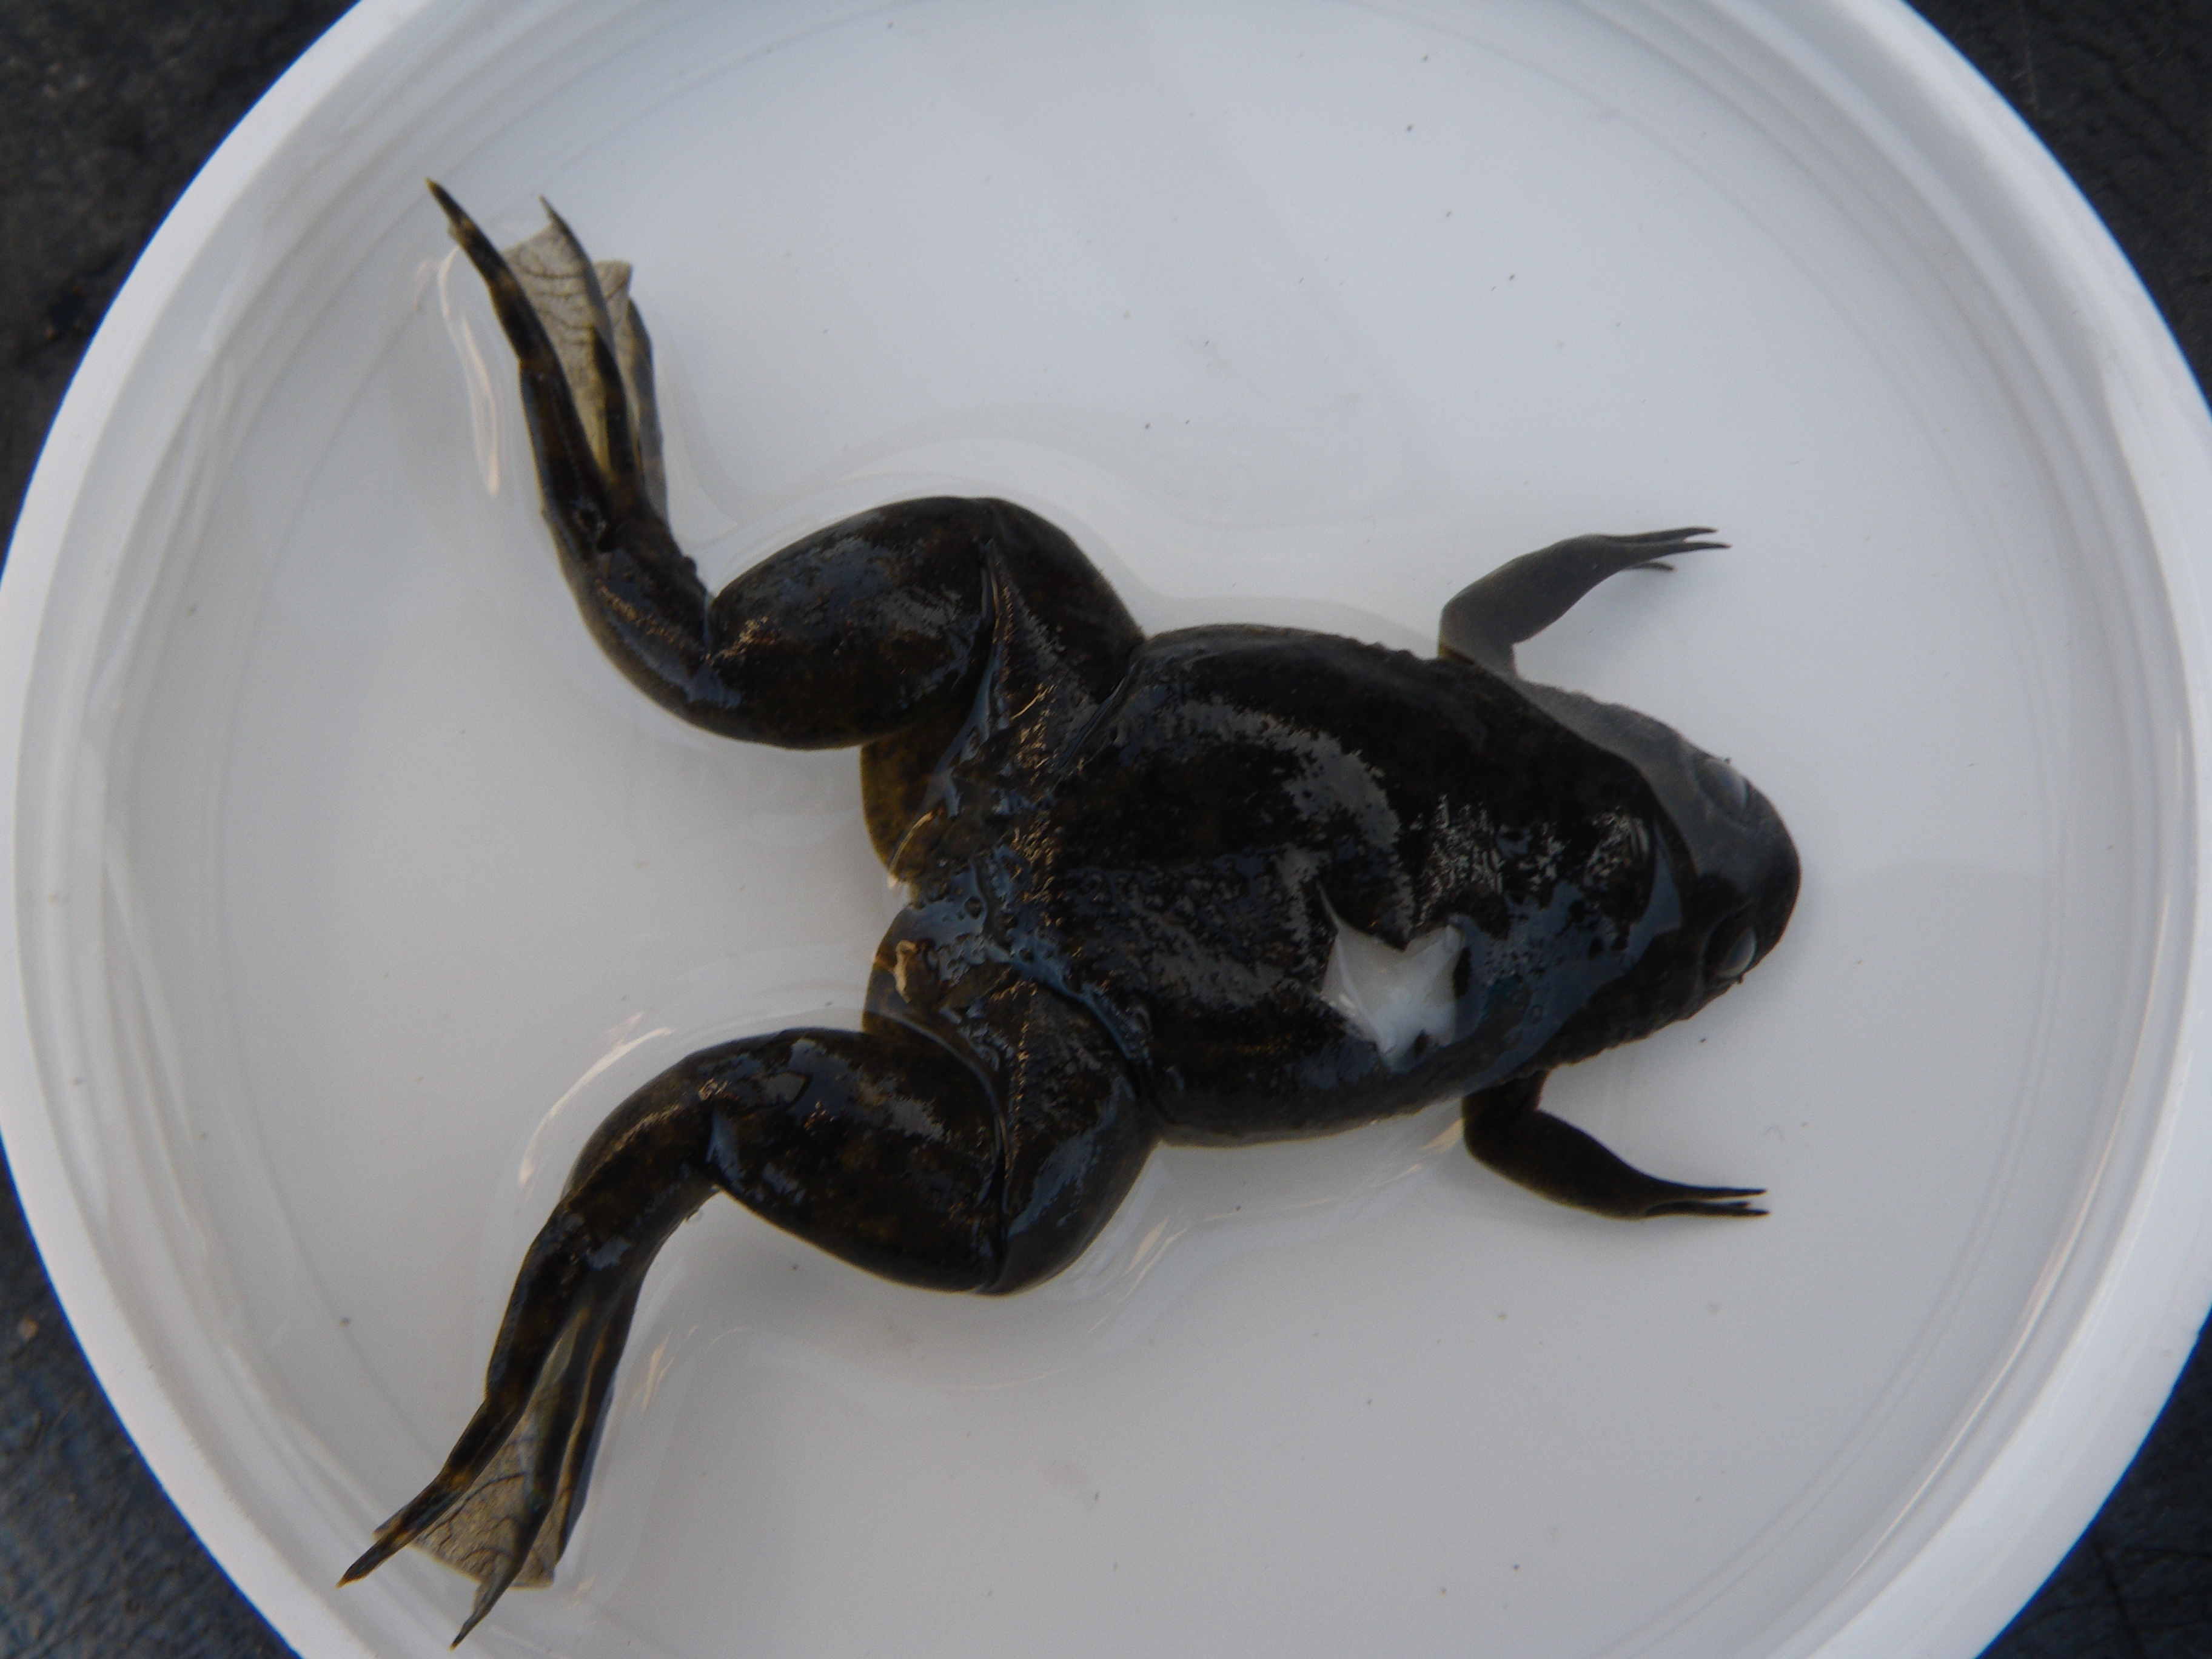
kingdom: Animalia
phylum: Chordata
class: Amphibia
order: Anura
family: Pipidae
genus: Xenopus
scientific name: Xenopus
